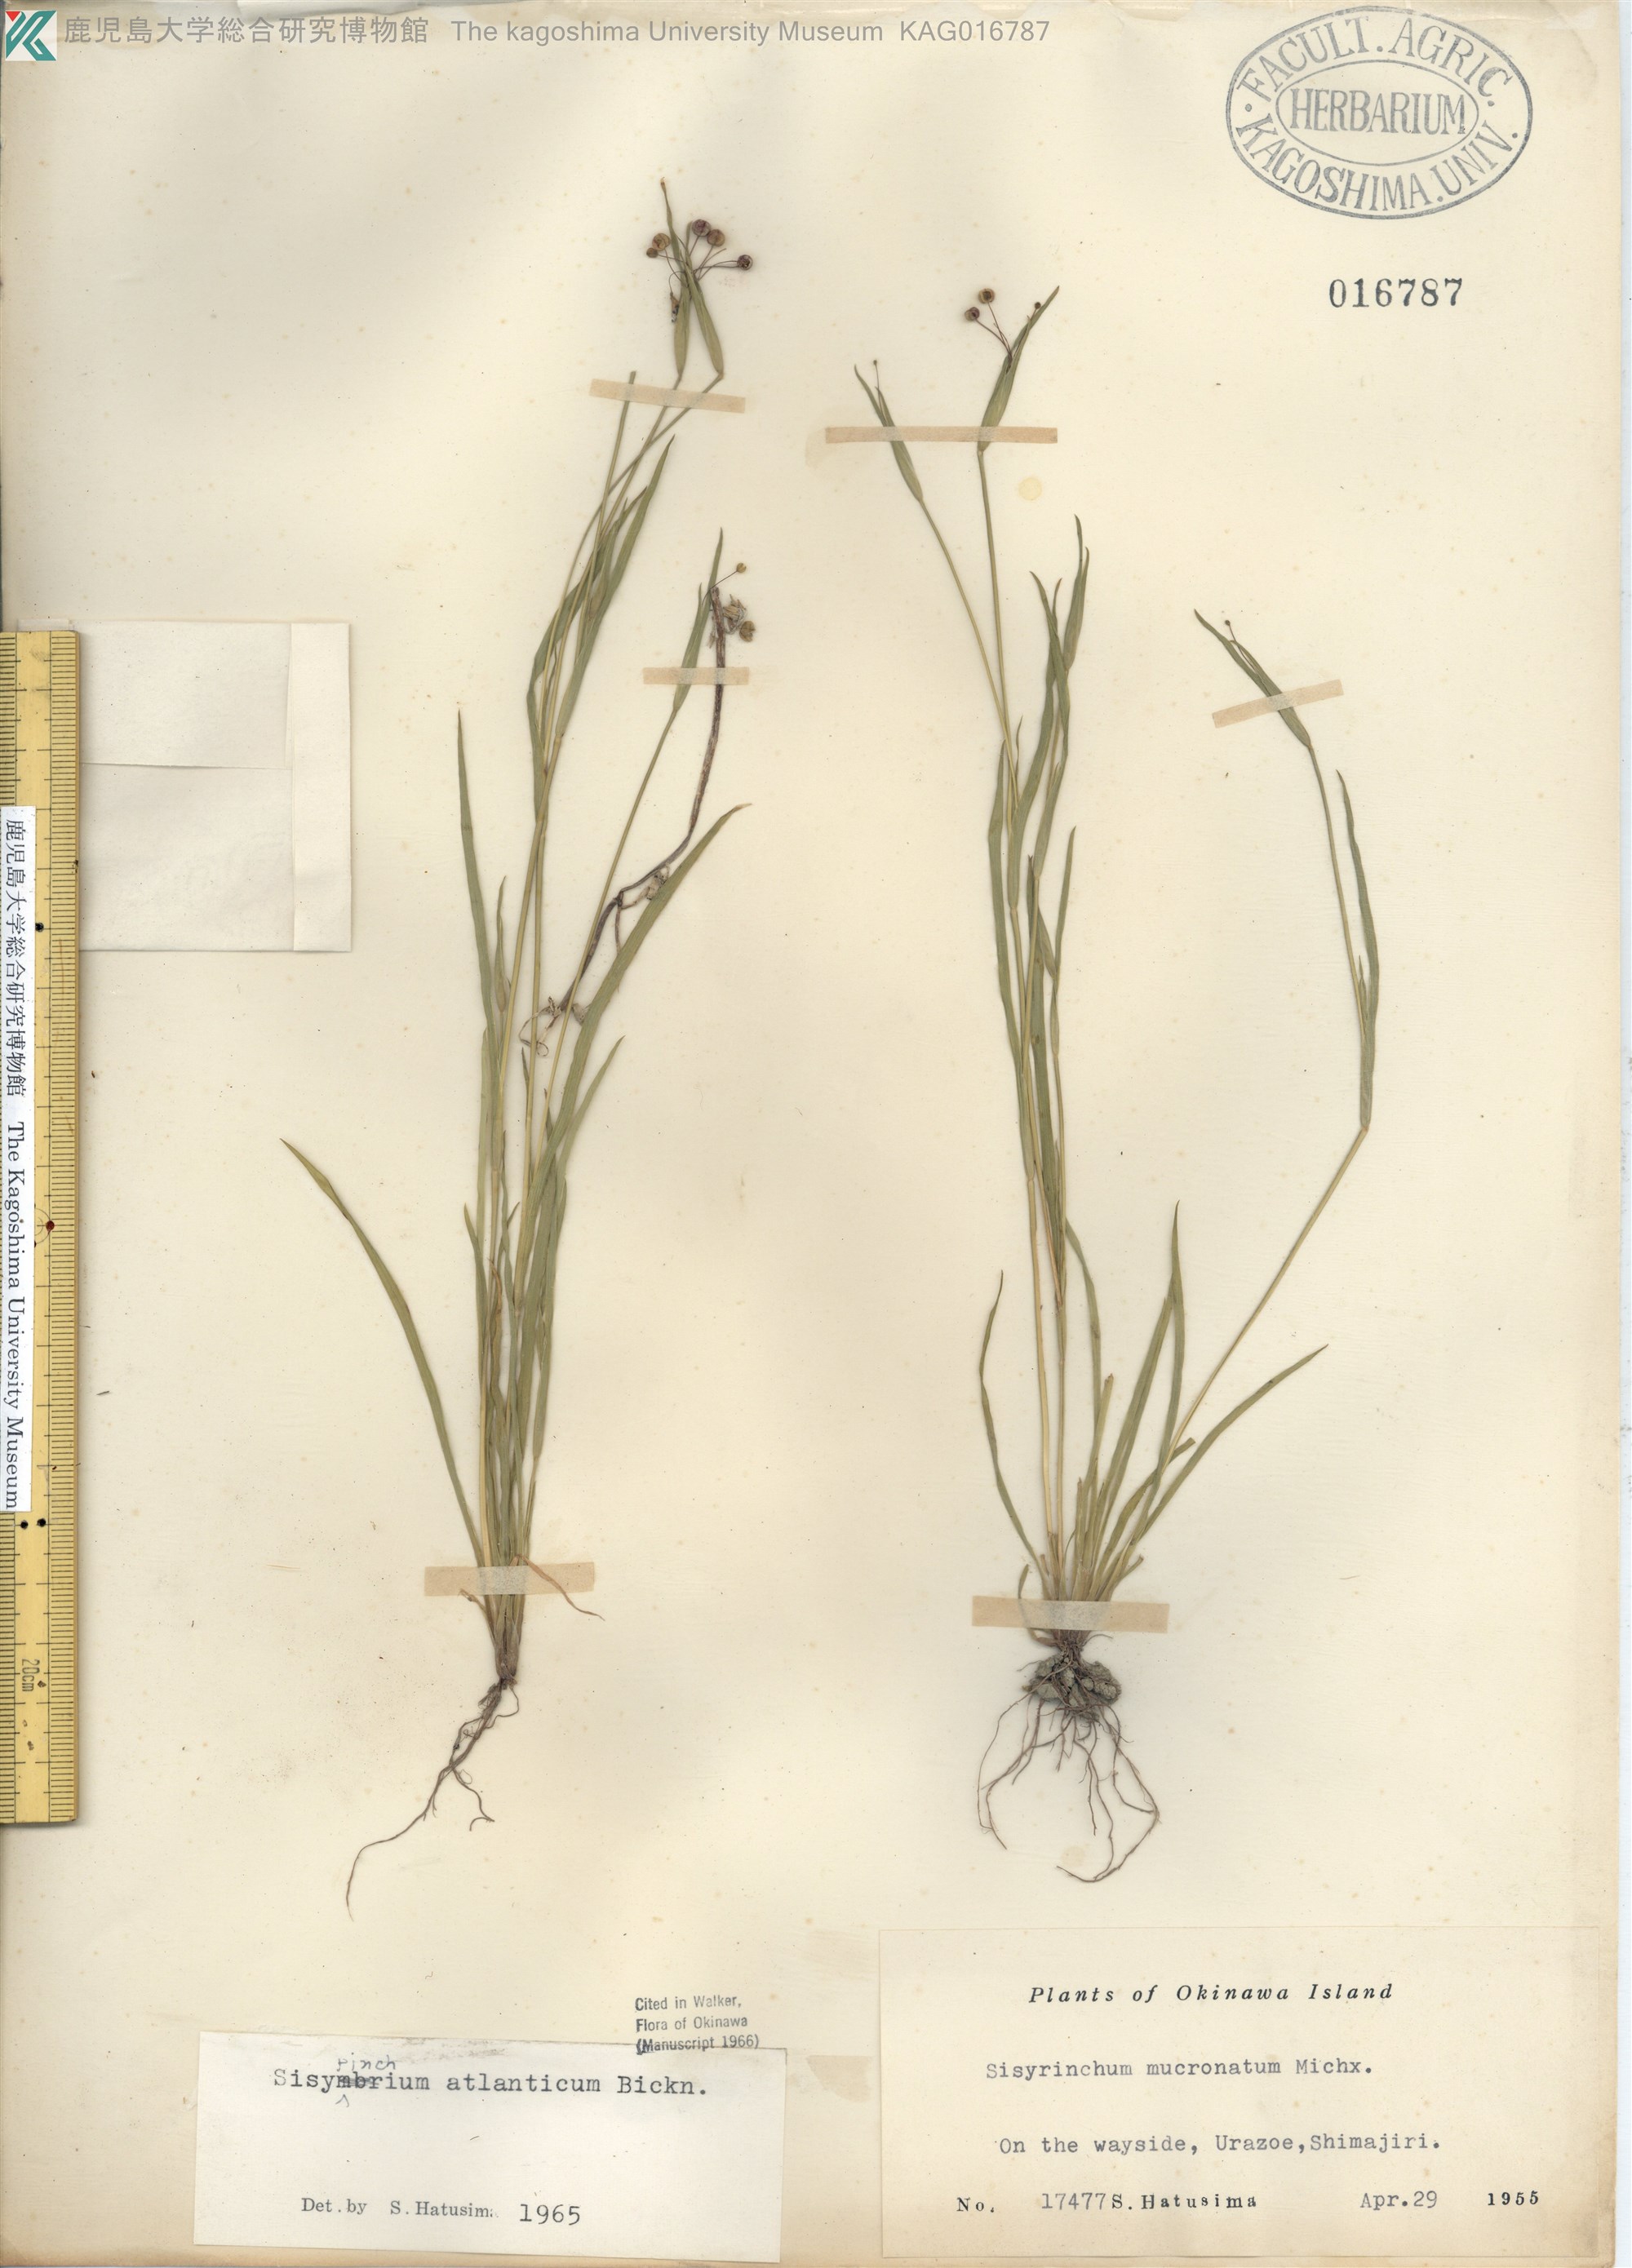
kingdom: Plantae
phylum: Tracheophyta
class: Liliopsida
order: Asparagales
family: Iridaceae
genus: Sisyrinchium
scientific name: Sisyrinchium rosulatum
